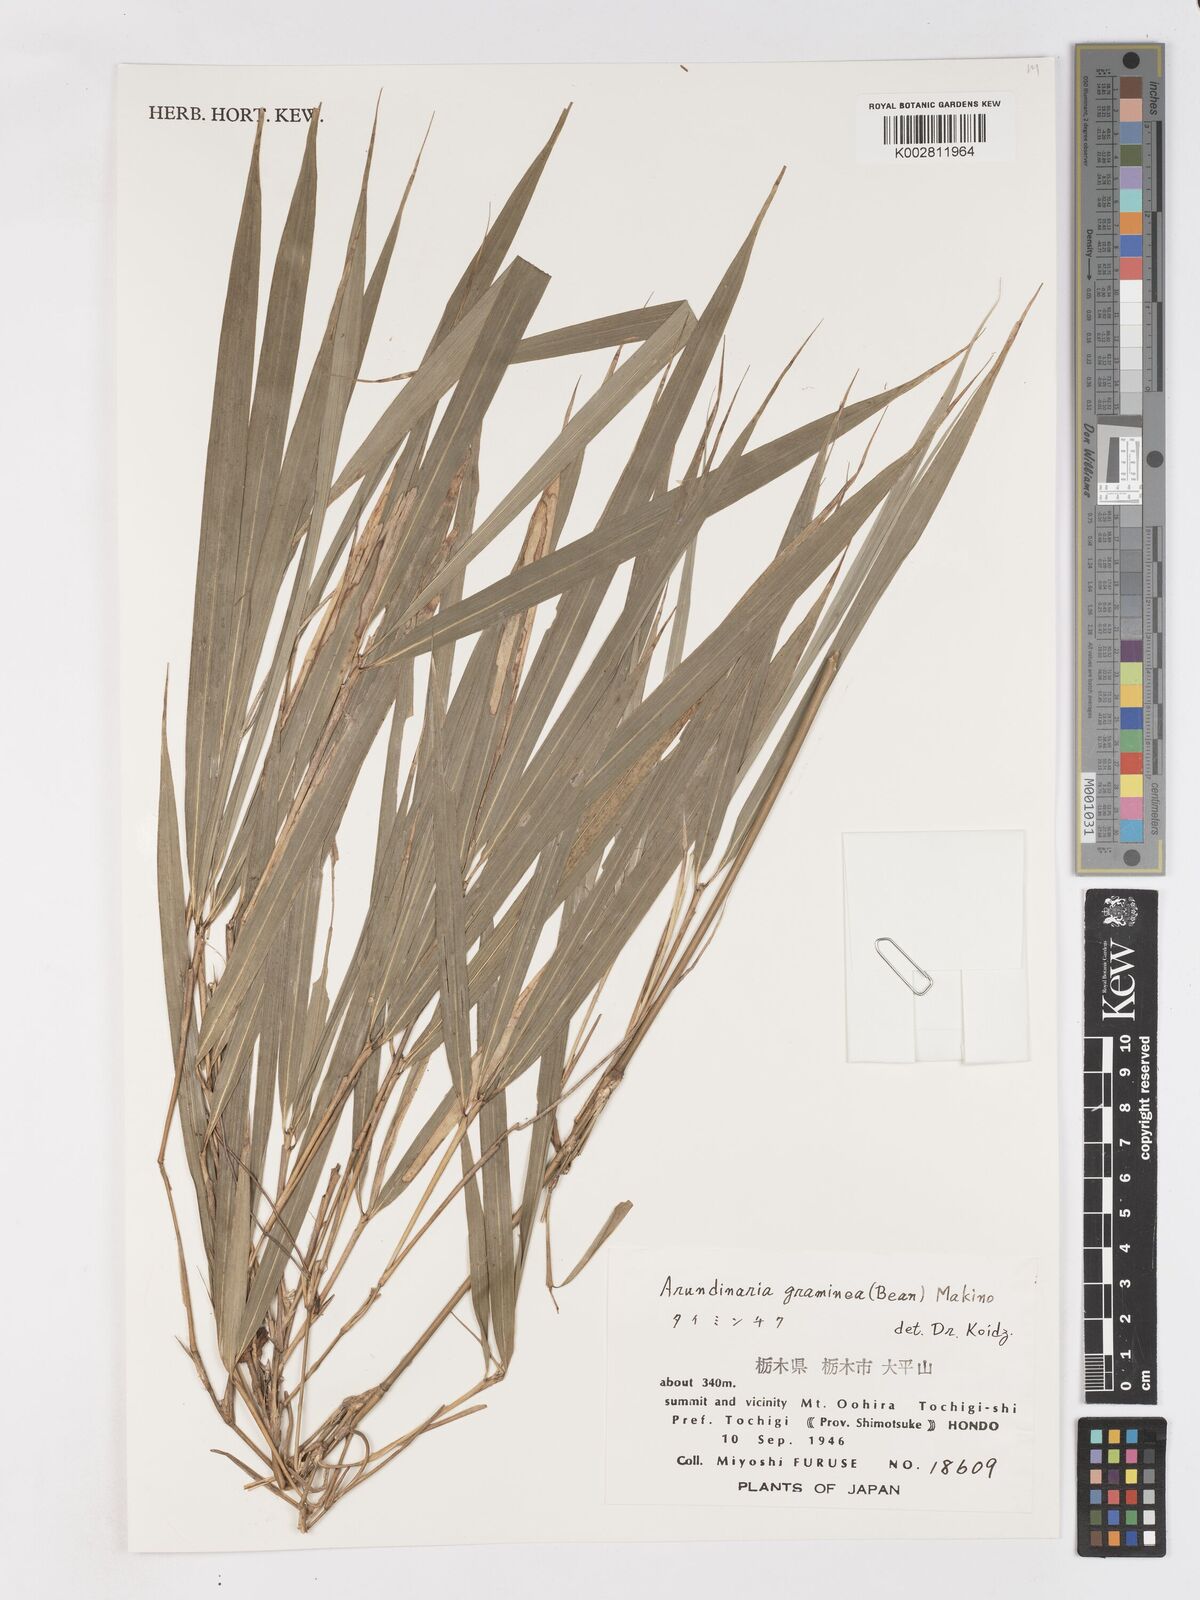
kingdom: Plantae
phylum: Tracheophyta
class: Liliopsida
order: Poales
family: Poaceae
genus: Pleioblastus
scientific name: Pleioblastus gramineus
